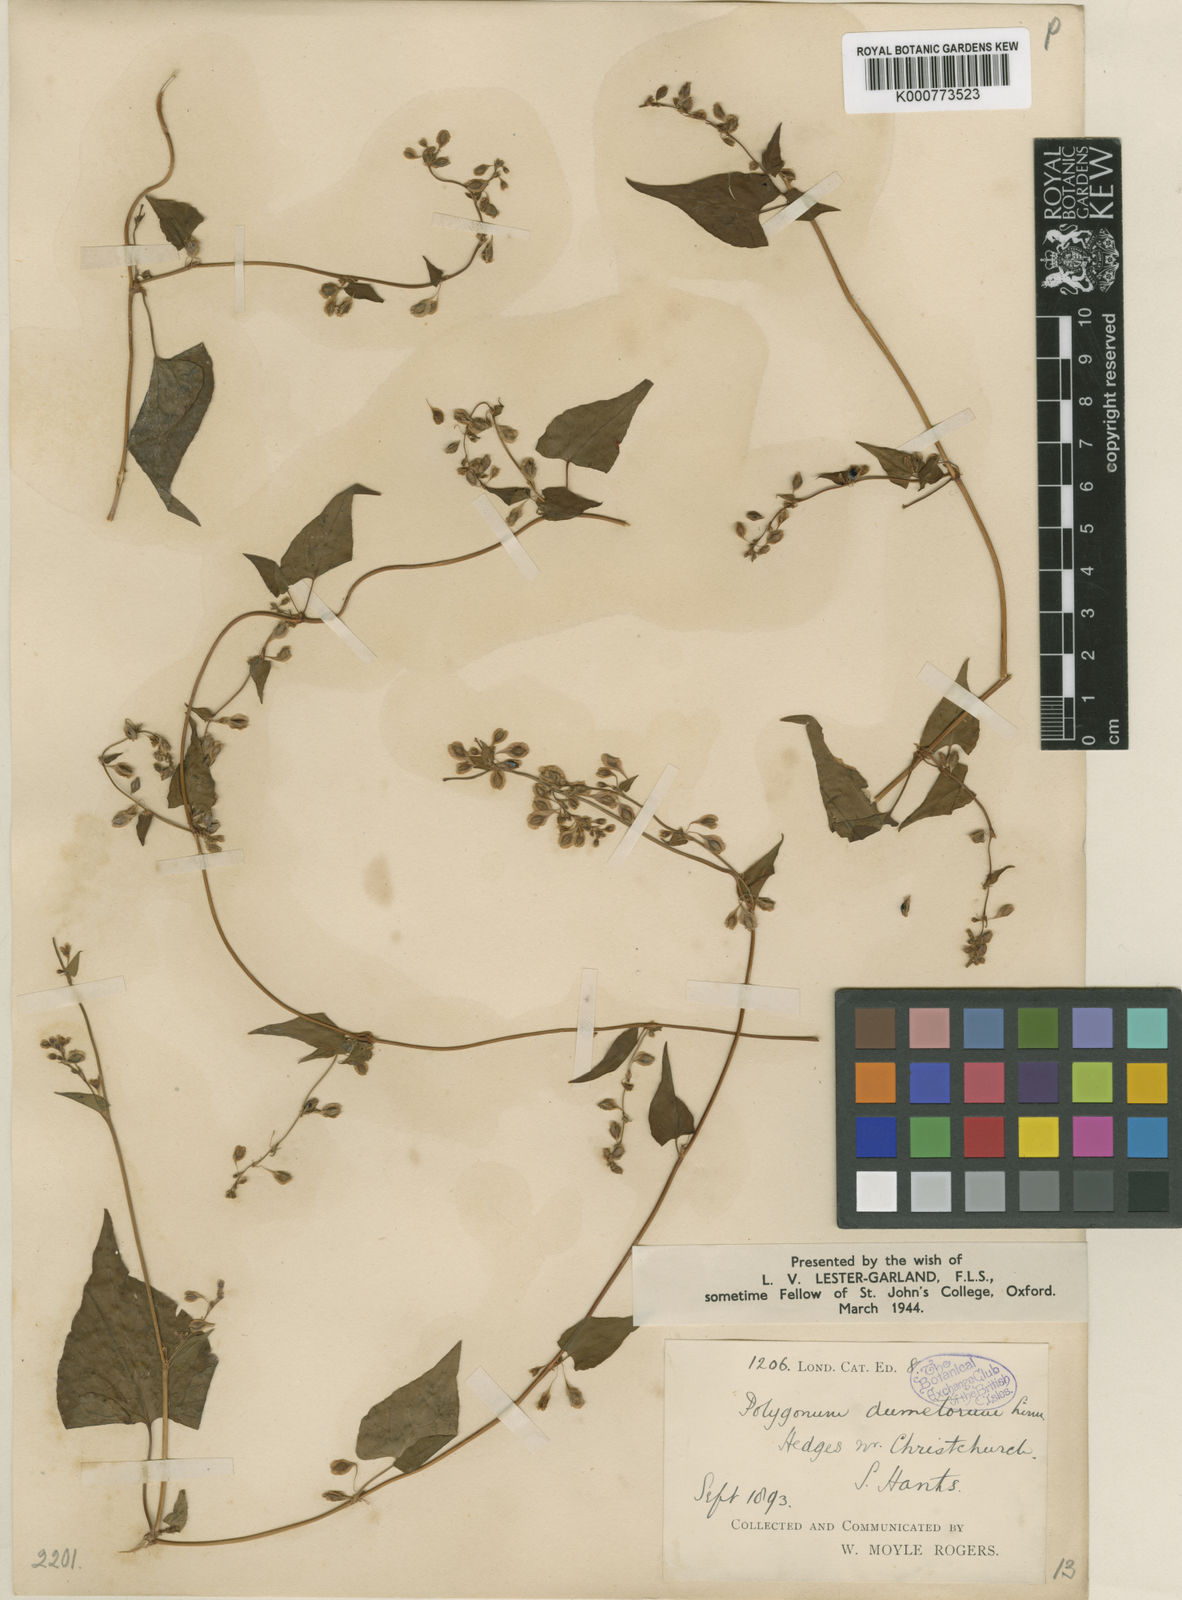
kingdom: Plantae
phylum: Tracheophyta
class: Magnoliopsida
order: Caryophyllales
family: Polygonaceae
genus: Fallopia
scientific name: Fallopia dumetorum
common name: Copse-bindweed
